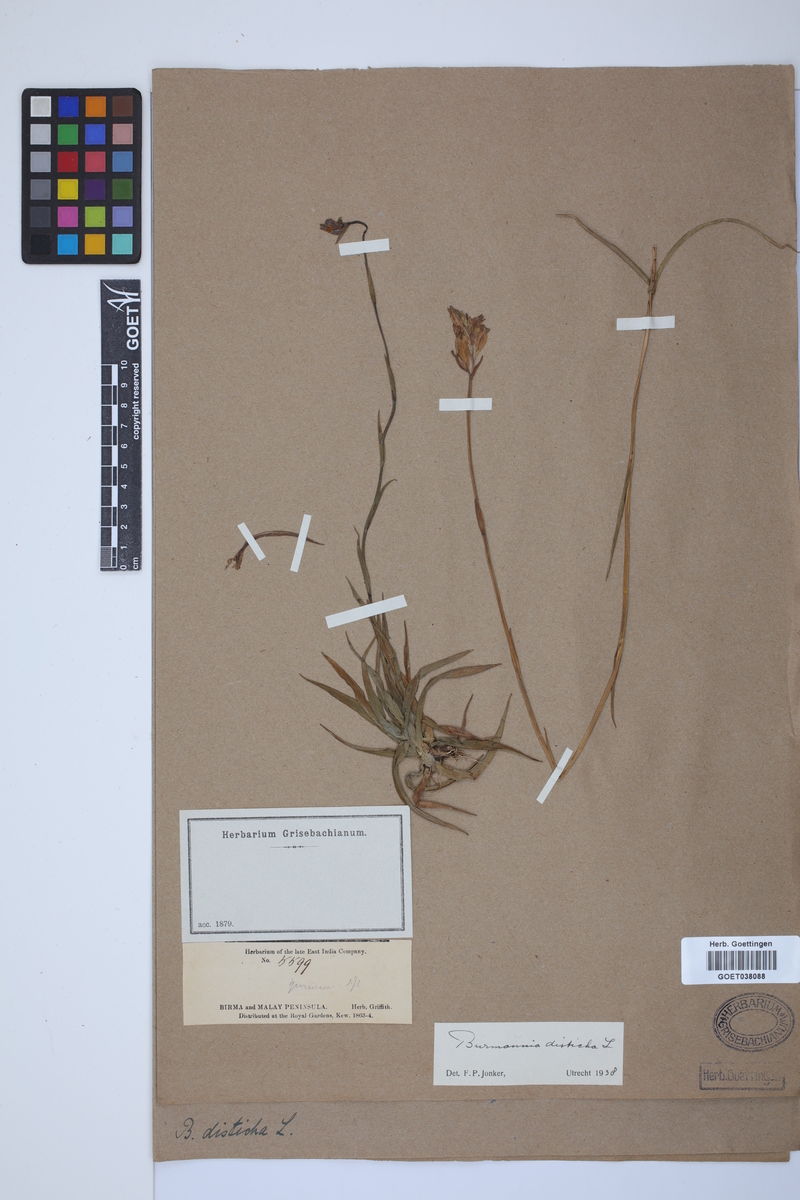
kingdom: Plantae
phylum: Tracheophyta
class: Liliopsida
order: Dioscoreales
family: Burmanniaceae
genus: Burmannia
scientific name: Burmannia disticha
